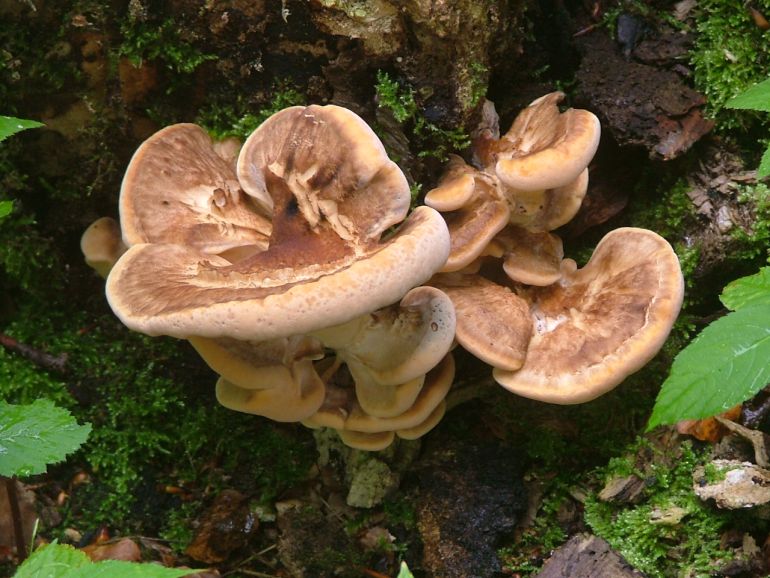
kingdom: Fungi
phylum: Basidiomycota
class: Agaricomycetes
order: Polyporales
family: Meripilaceae
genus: Meripilus
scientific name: Meripilus giganteus
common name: kæmpeporesvamp
